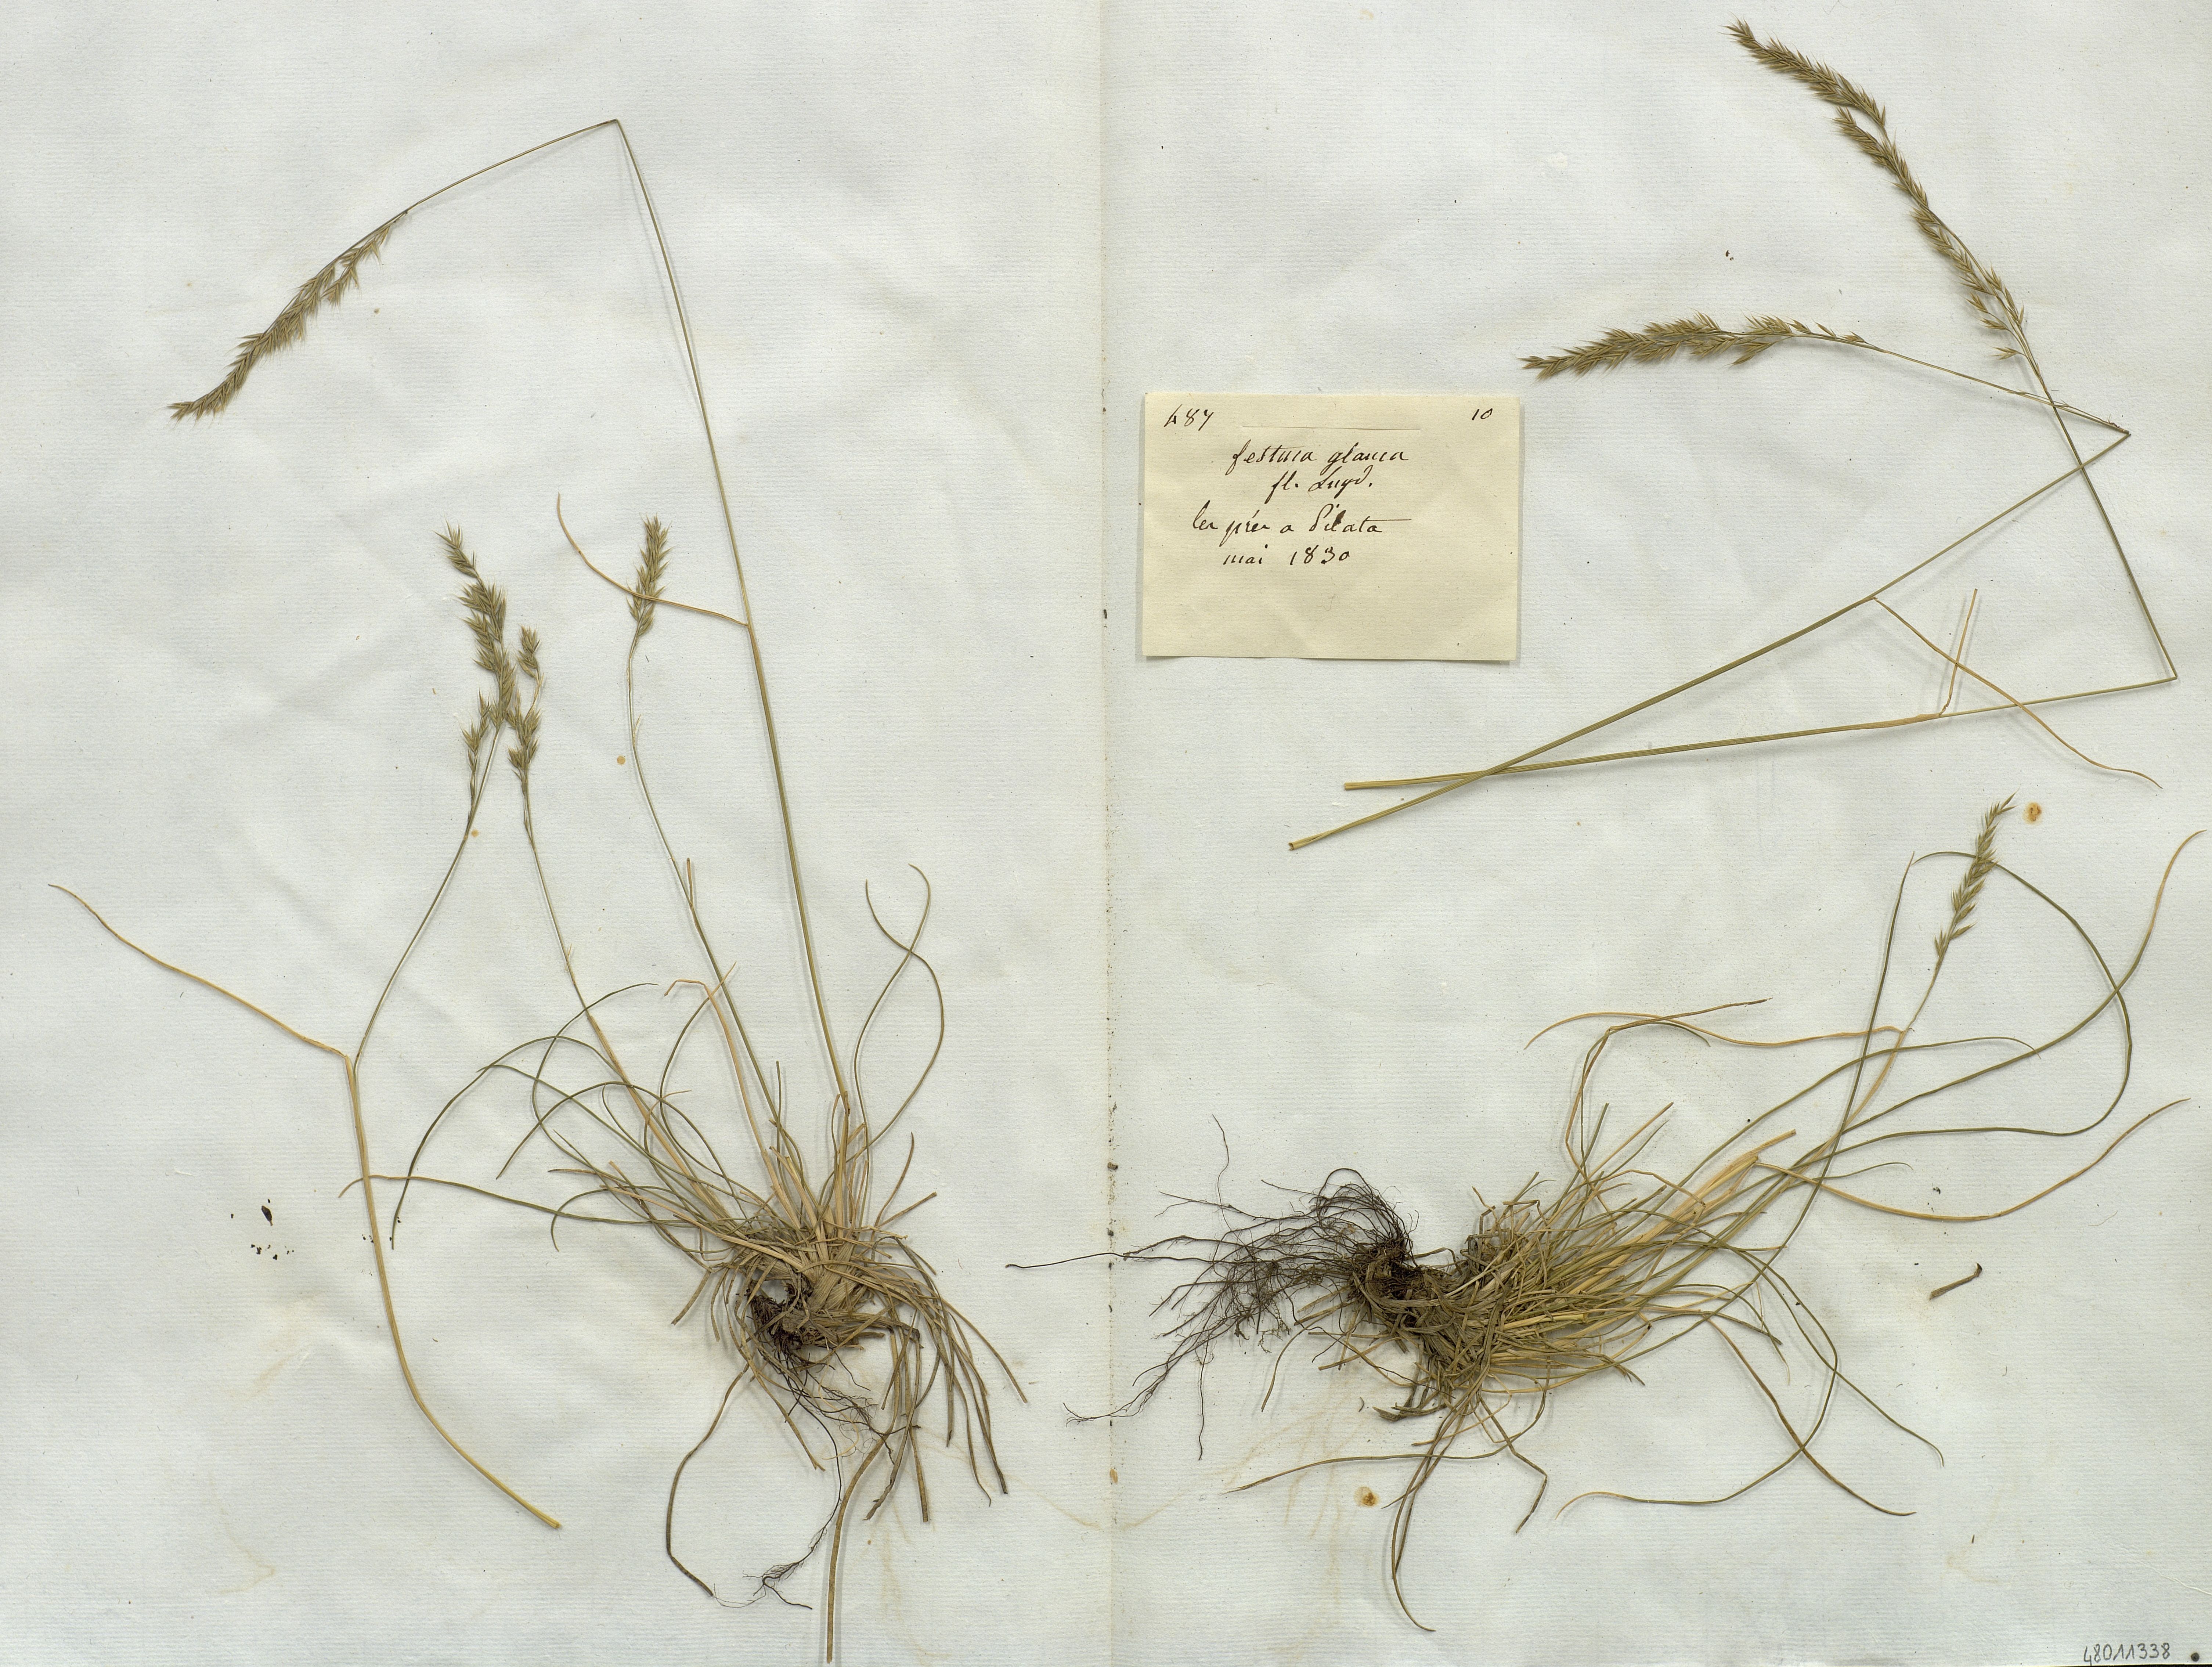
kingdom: Plantae
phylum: Tracheophyta
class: Liliopsida
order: Poales
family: Poaceae
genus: Festuca
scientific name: Festuca glauca
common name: Blue fescue
